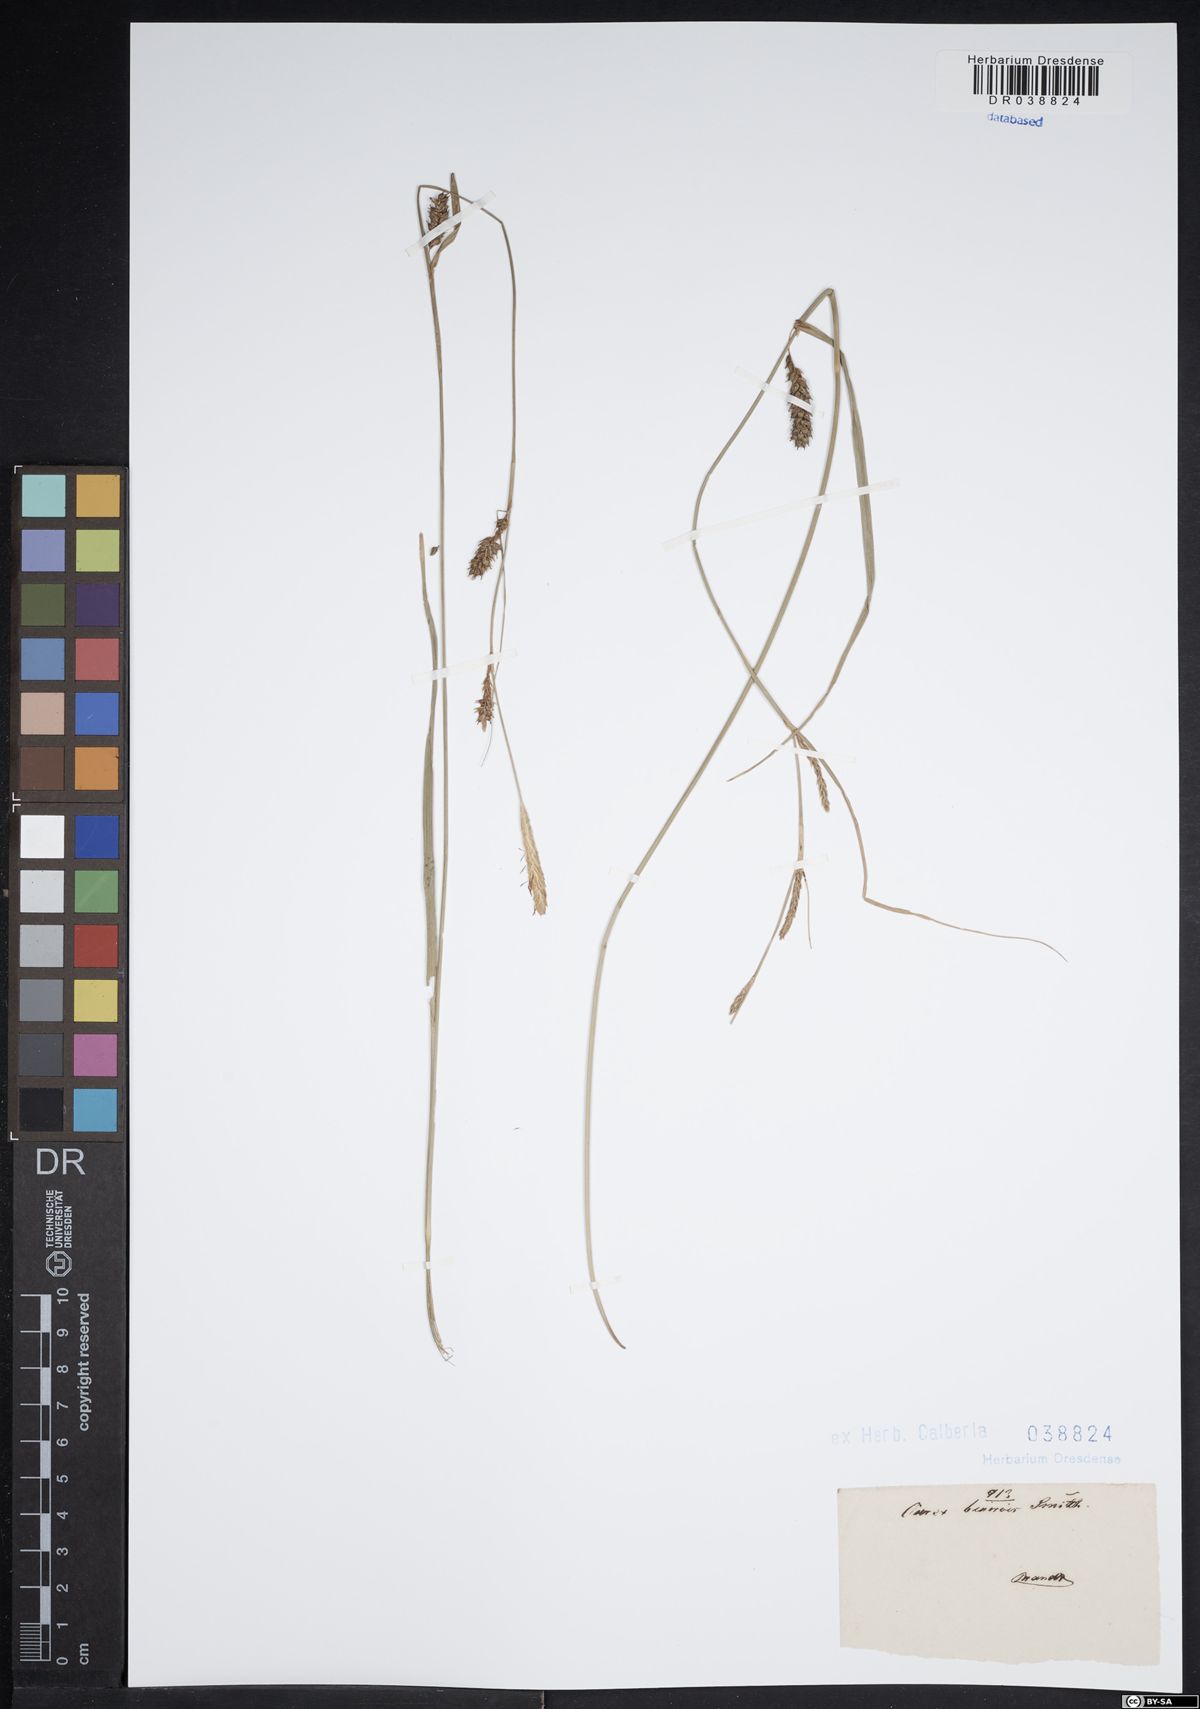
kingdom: Plantae
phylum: Tracheophyta
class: Liliopsida
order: Poales
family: Cyperaceae
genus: Carex
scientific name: Carex binervis
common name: Green-ribbed sedge
